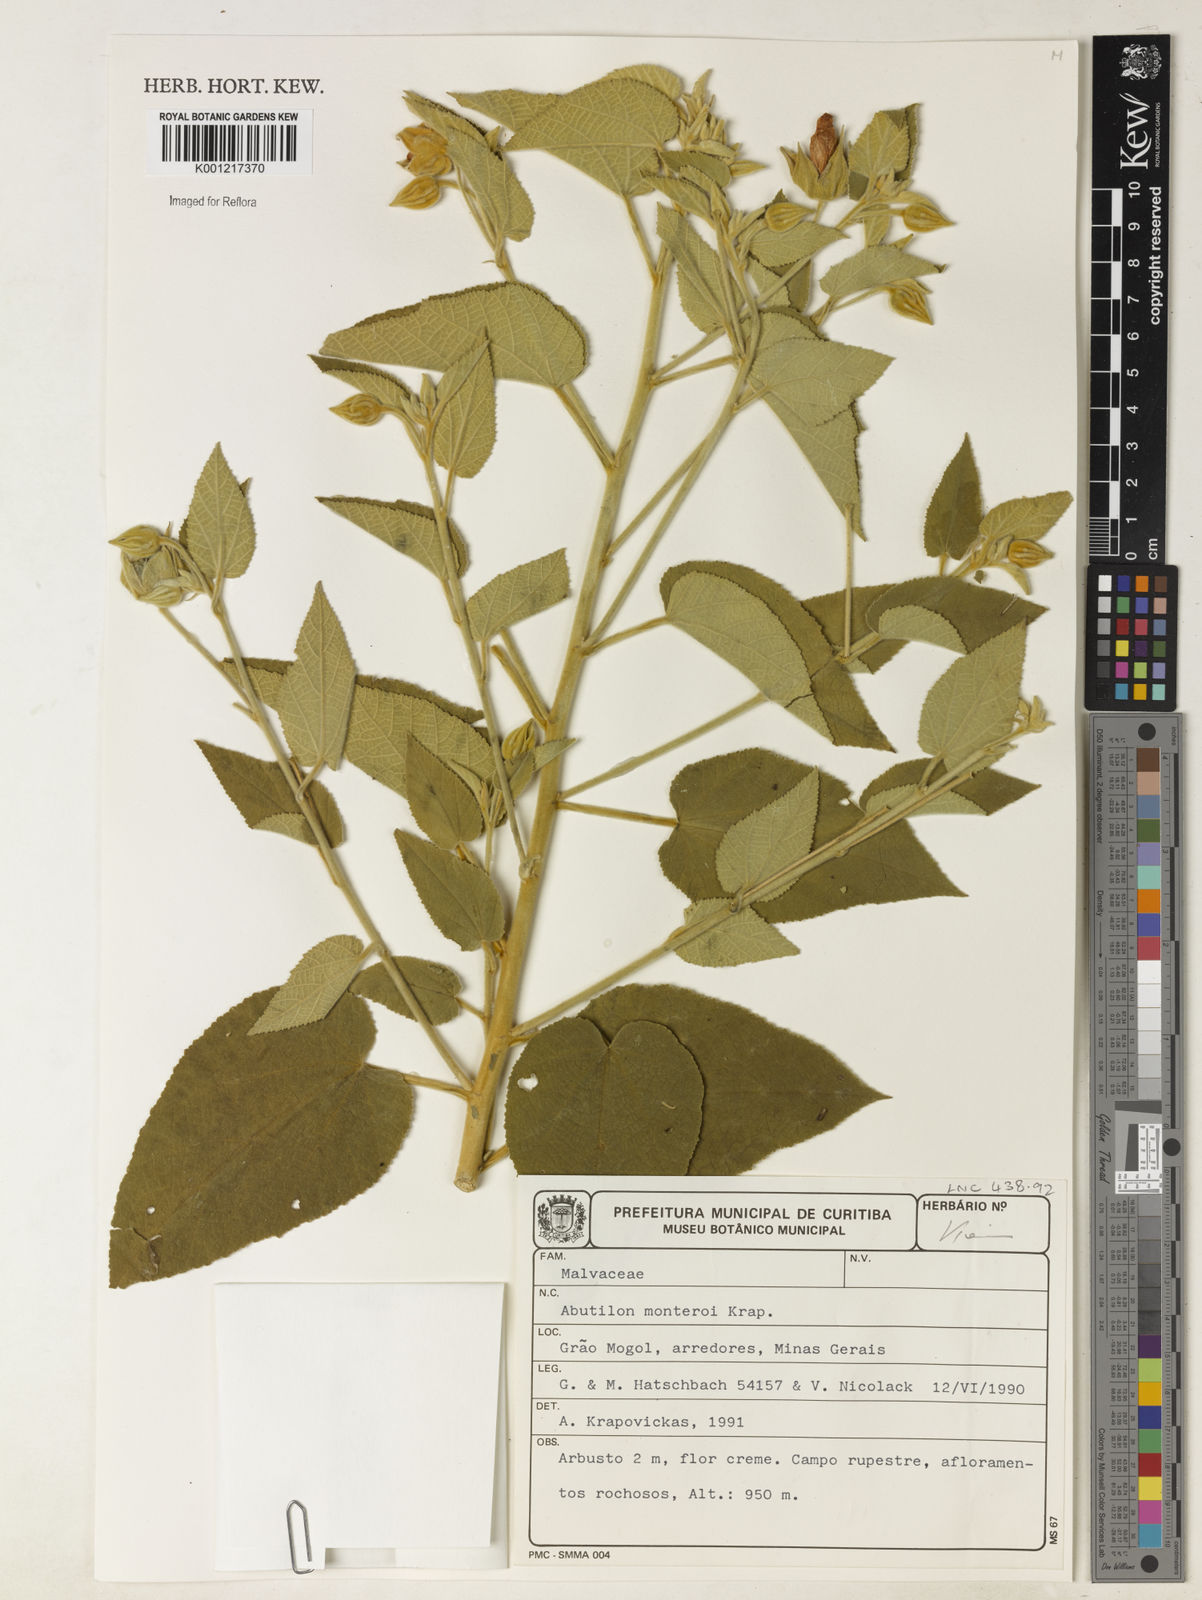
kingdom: Plantae
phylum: Tracheophyta
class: Magnoliopsida
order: Malvales
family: Malvaceae
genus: Callianthe
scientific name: Callianthe monteiroi
